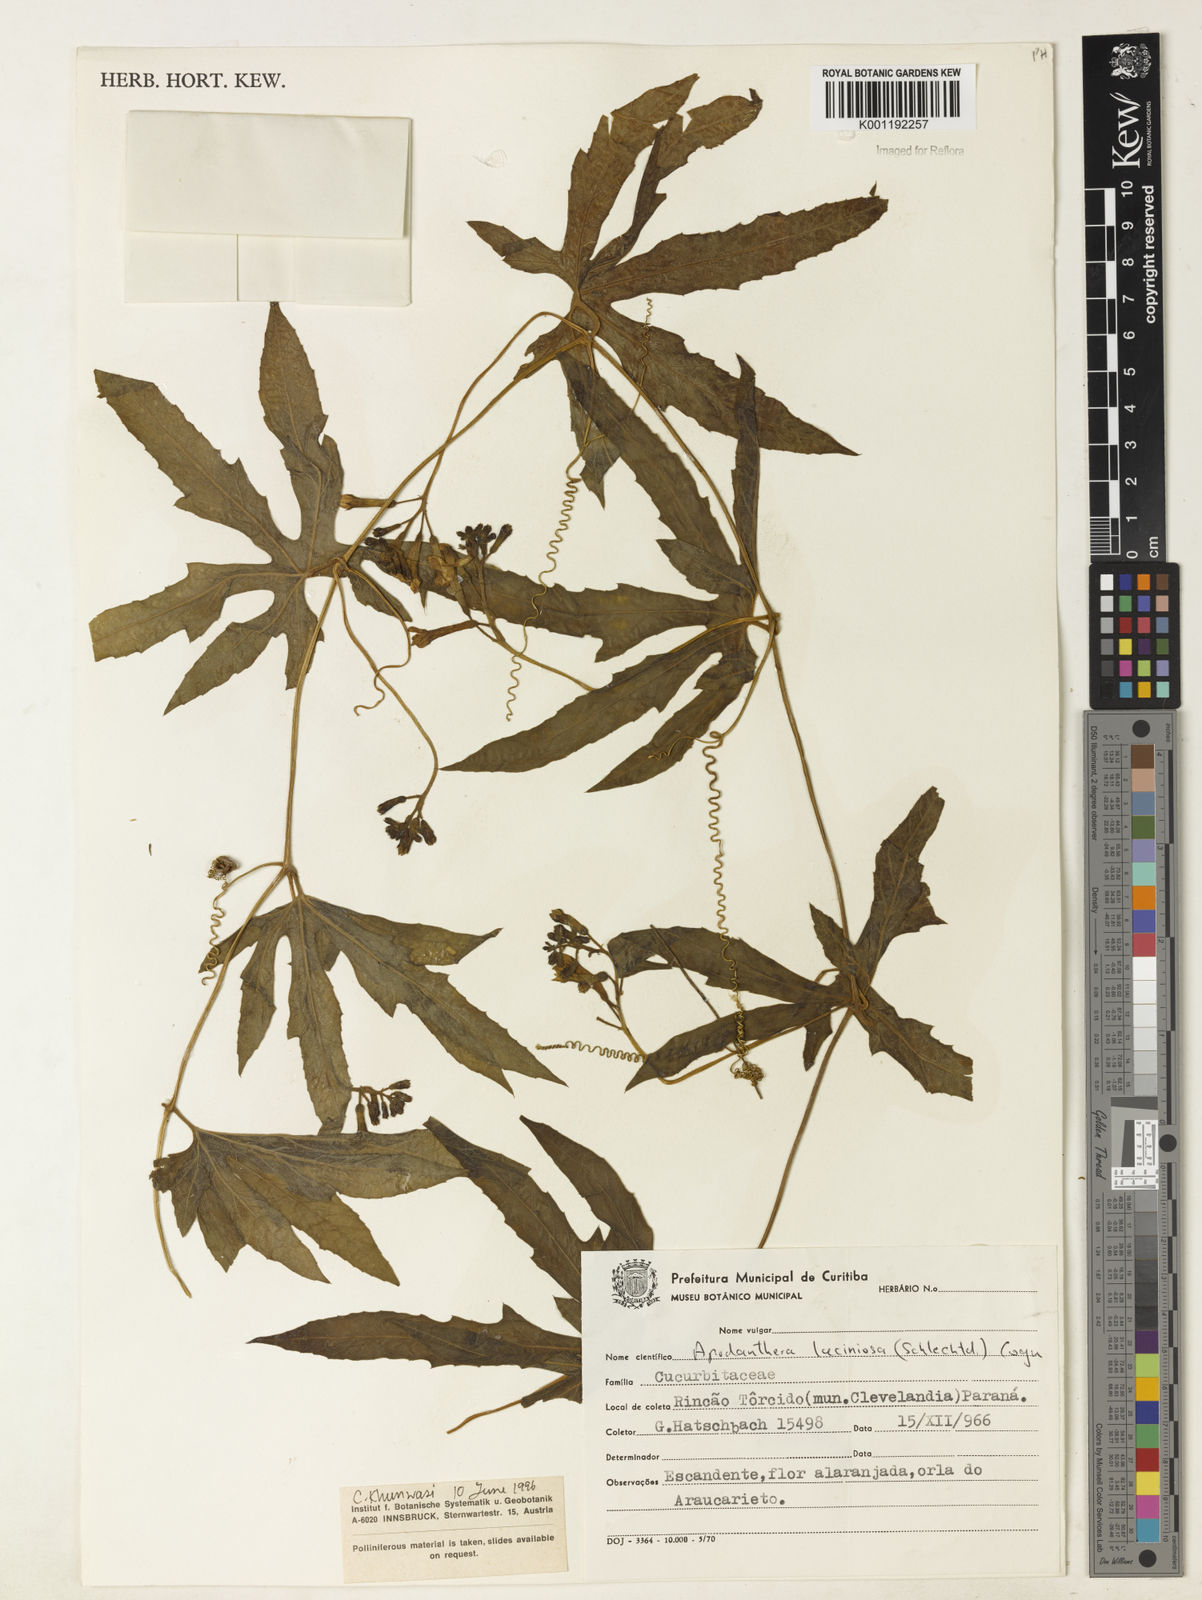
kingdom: Plantae
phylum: Tracheophyta
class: Magnoliopsida
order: Cucurbitales
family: Cucurbitaceae
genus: Apodanthera
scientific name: Apodanthera laciniosa
